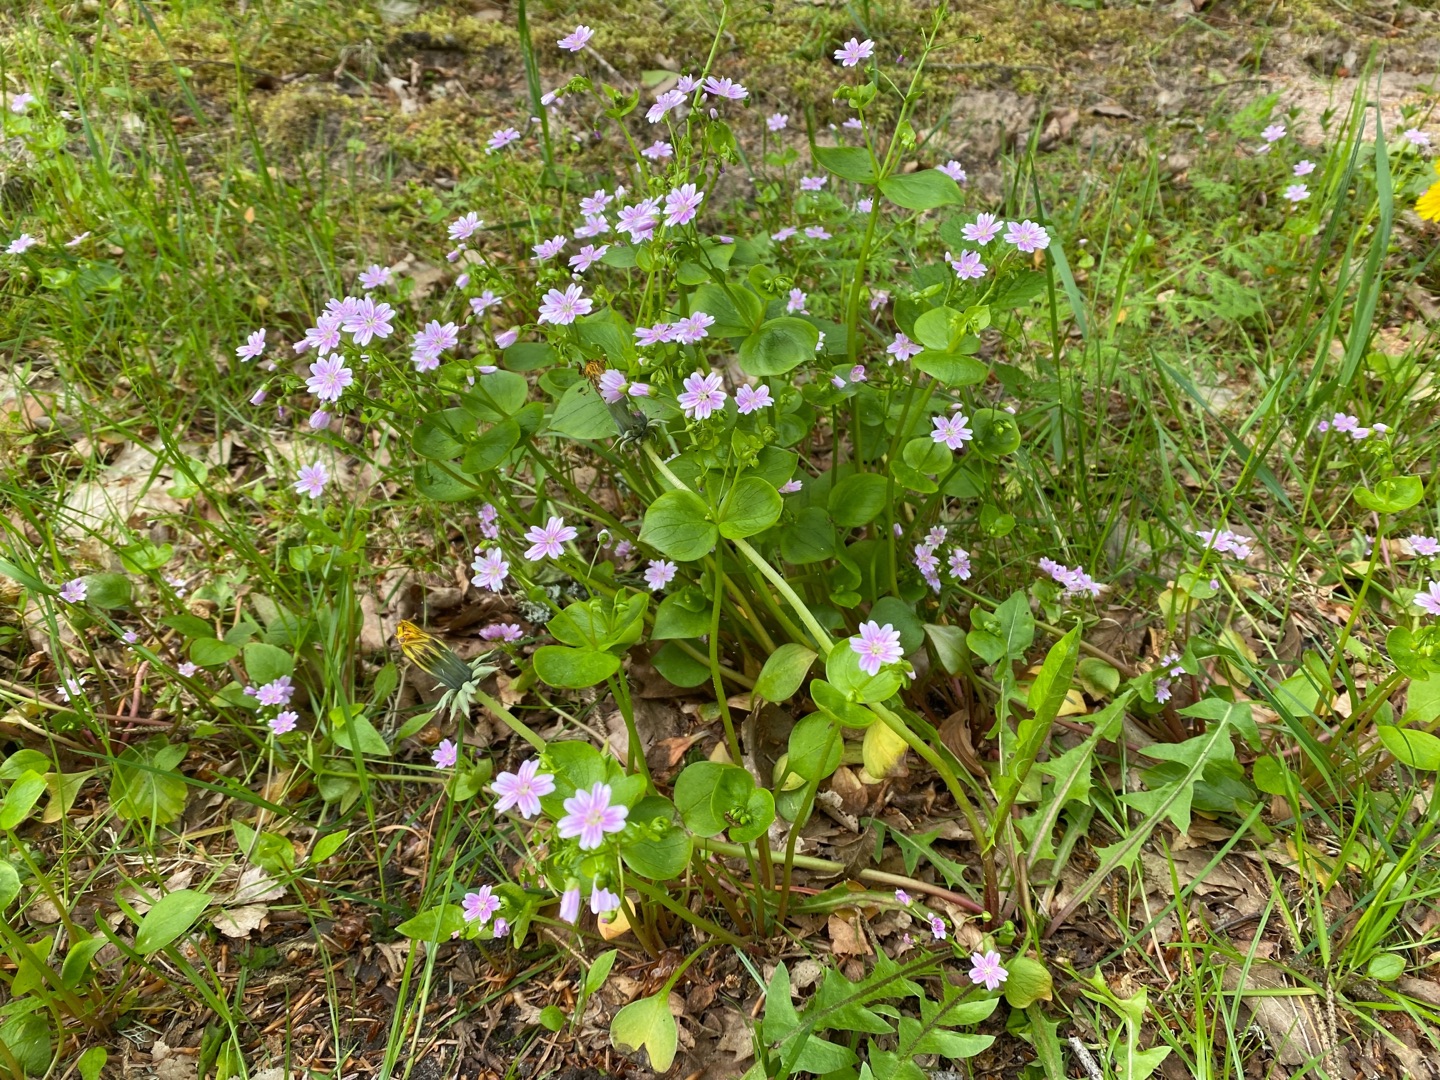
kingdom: Plantae
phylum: Tracheophyta
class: Magnoliopsida
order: Caryophyllales
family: Montiaceae
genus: Claytonia
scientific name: Claytonia sibirica
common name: Sibirisk vinterportulak
